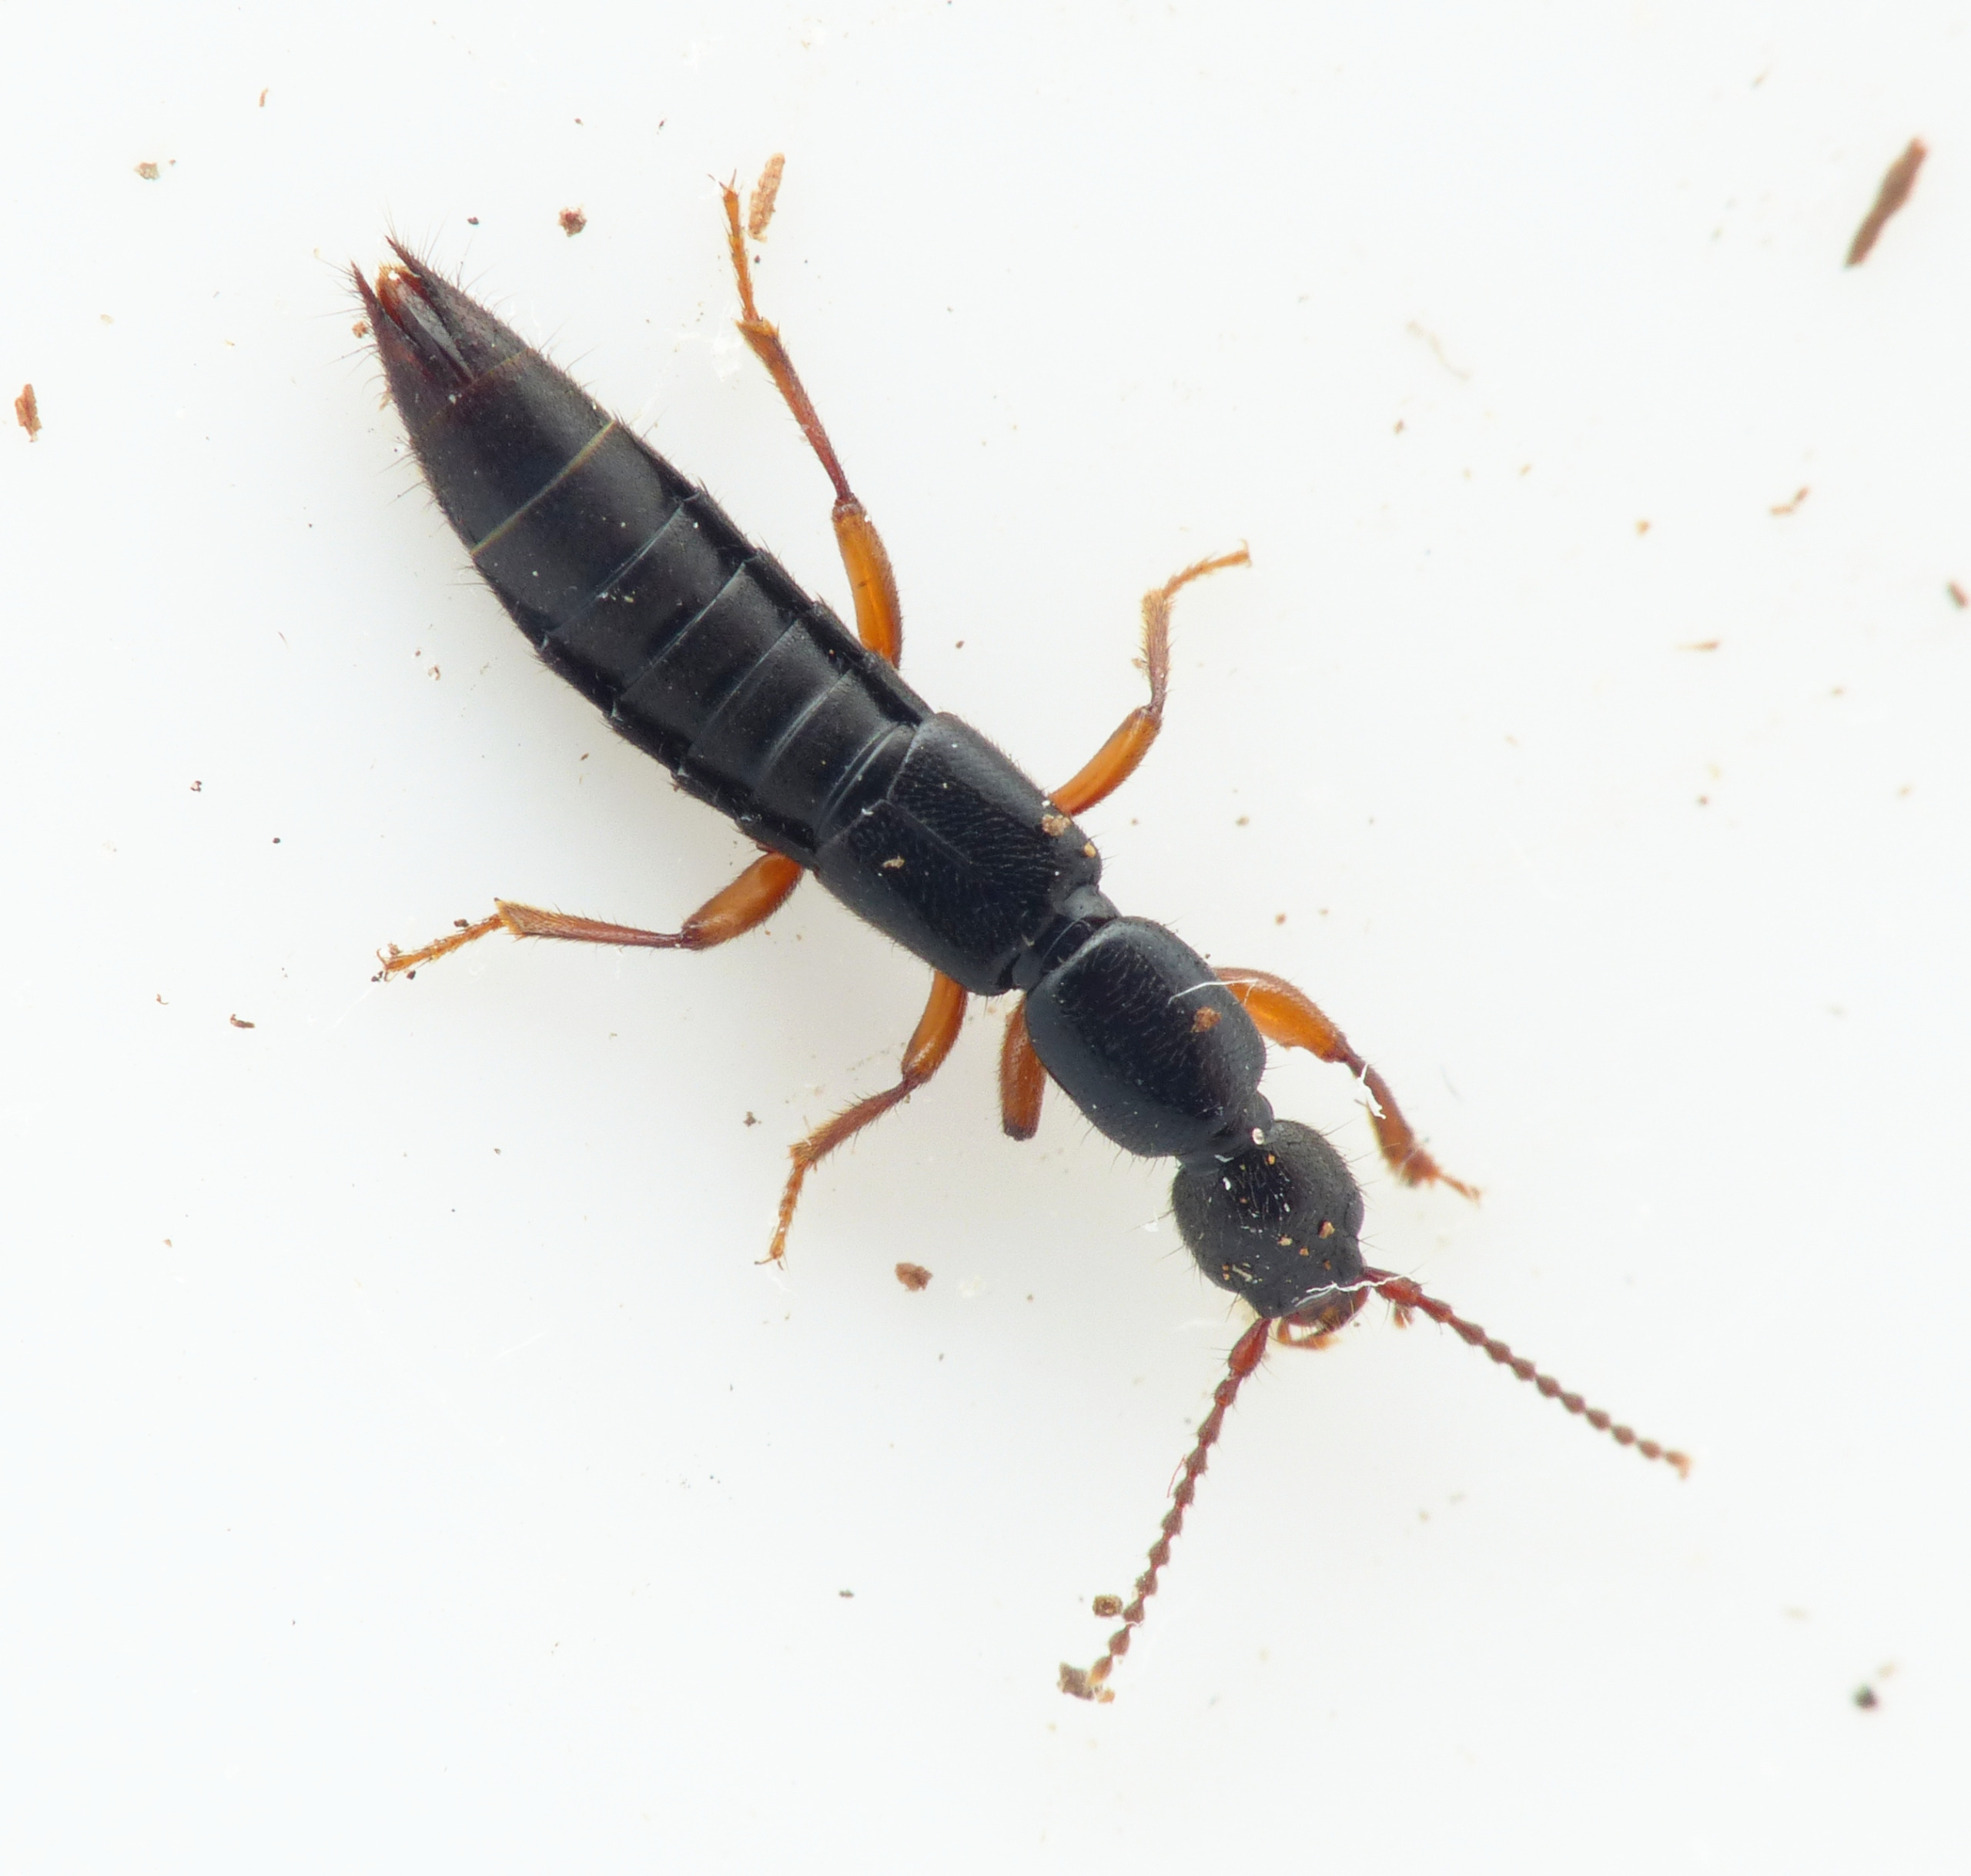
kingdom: Animalia
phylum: Arthropoda
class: Insecta
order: Coleoptera
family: Staphylinidae
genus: Lathrobium
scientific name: Lathrobium brunnipes
